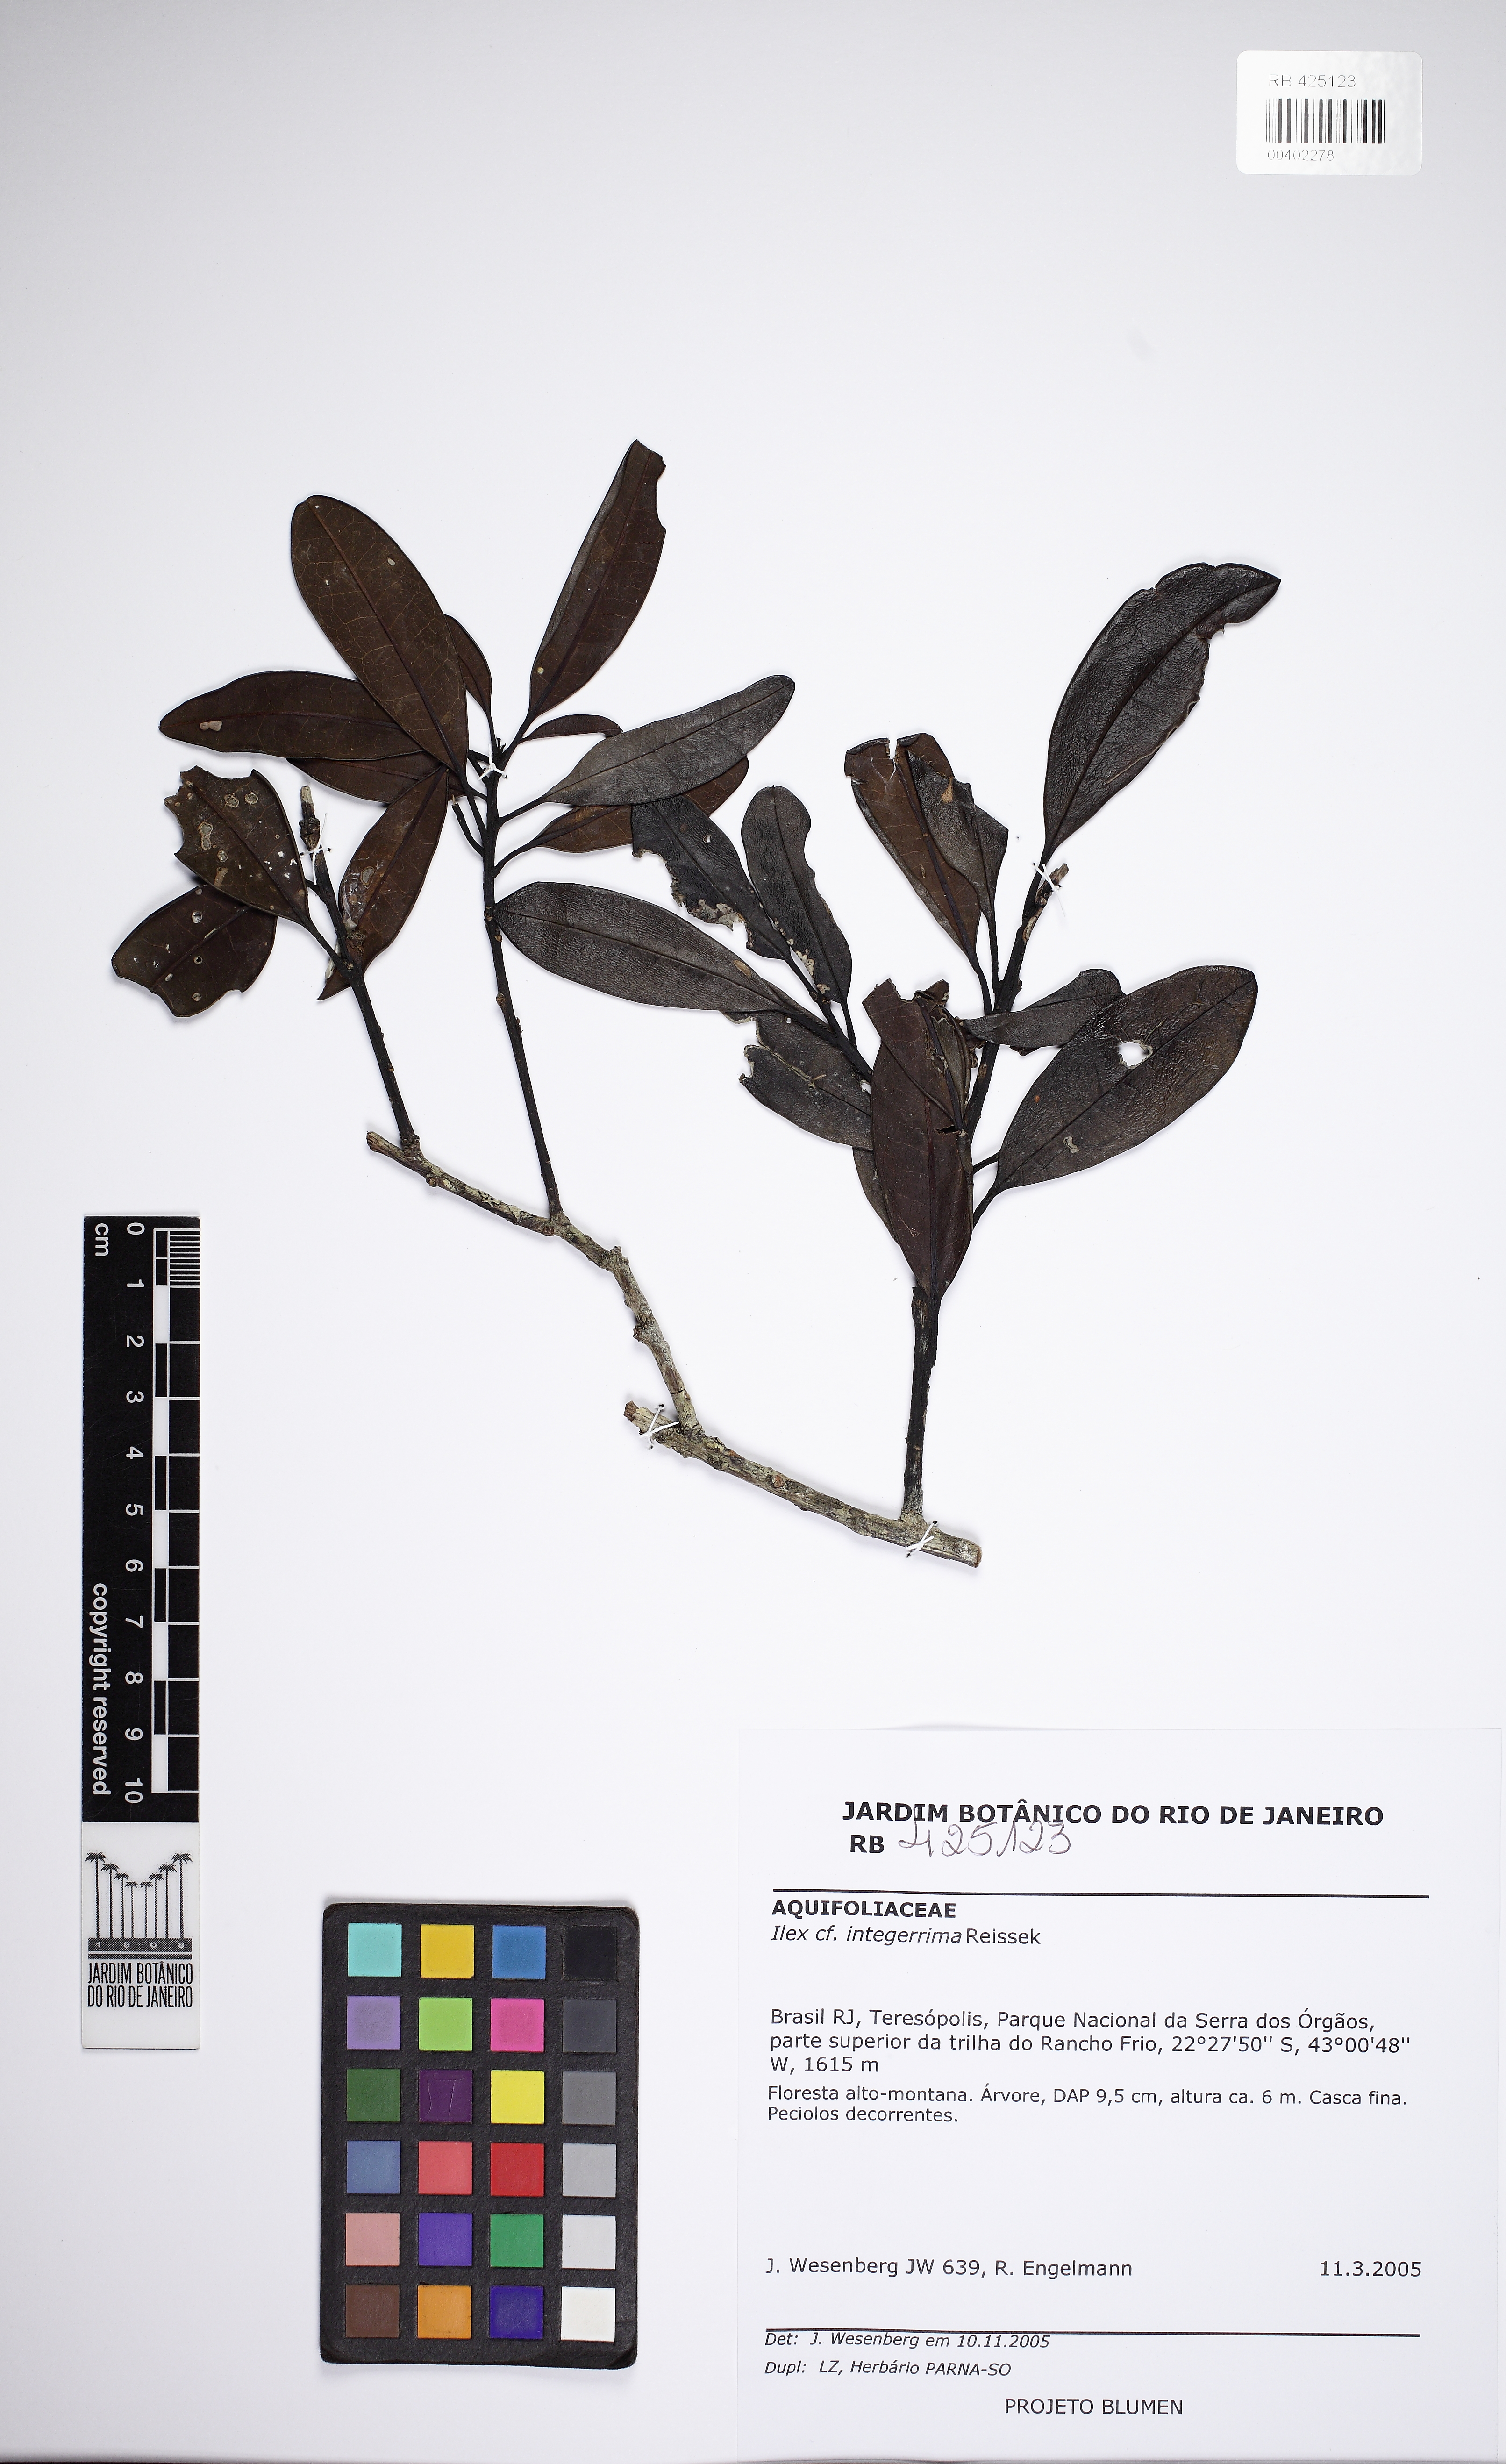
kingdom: Plantae
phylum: Tracheophyta
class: Magnoliopsida
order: Aquifoliales
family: Aquifoliaceae
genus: Ilex
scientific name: Ilex integerrima
